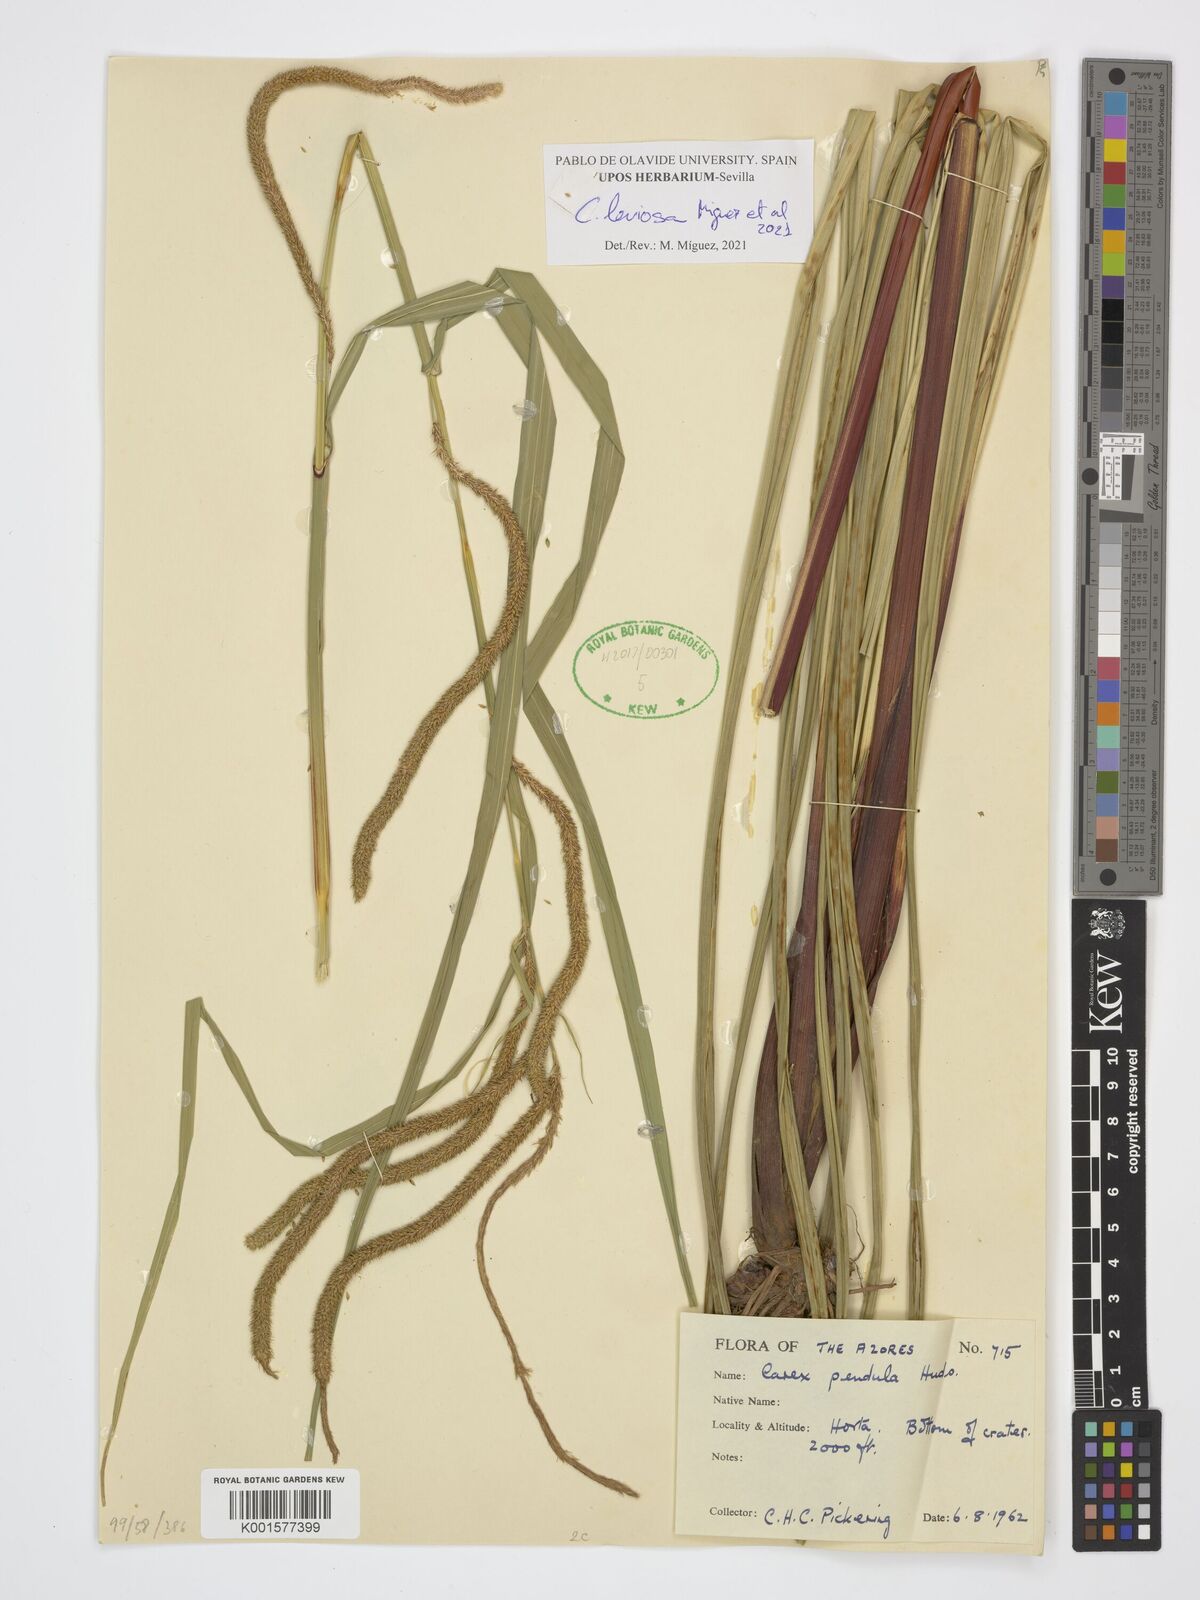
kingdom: Plantae
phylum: Tracheophyta
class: Liliopsida
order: Poales
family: Cyperaceae
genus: Carex
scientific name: Carex pendula
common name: Pendulous sedge
